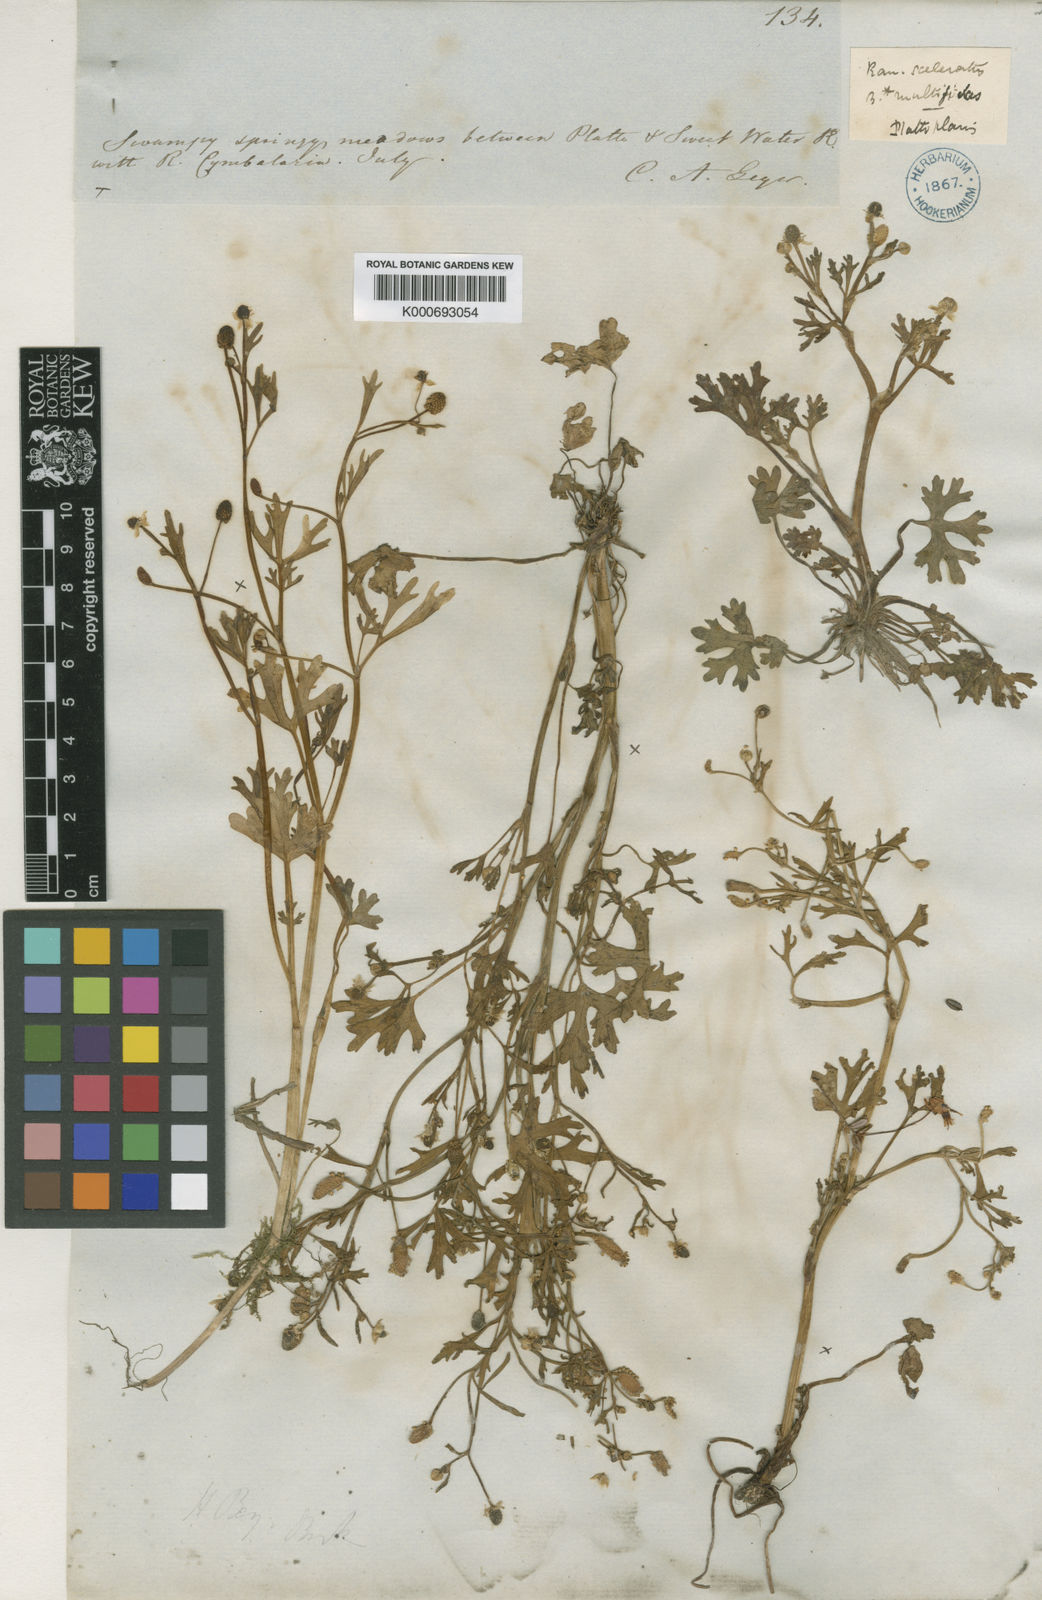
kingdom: Plantae
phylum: Tracheophyta
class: Magnoliopsida
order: Ranunculales
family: Ranunculaceae
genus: Ranunculus
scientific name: Ranunculus sceleratus
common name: Celery-leaved buttercup
